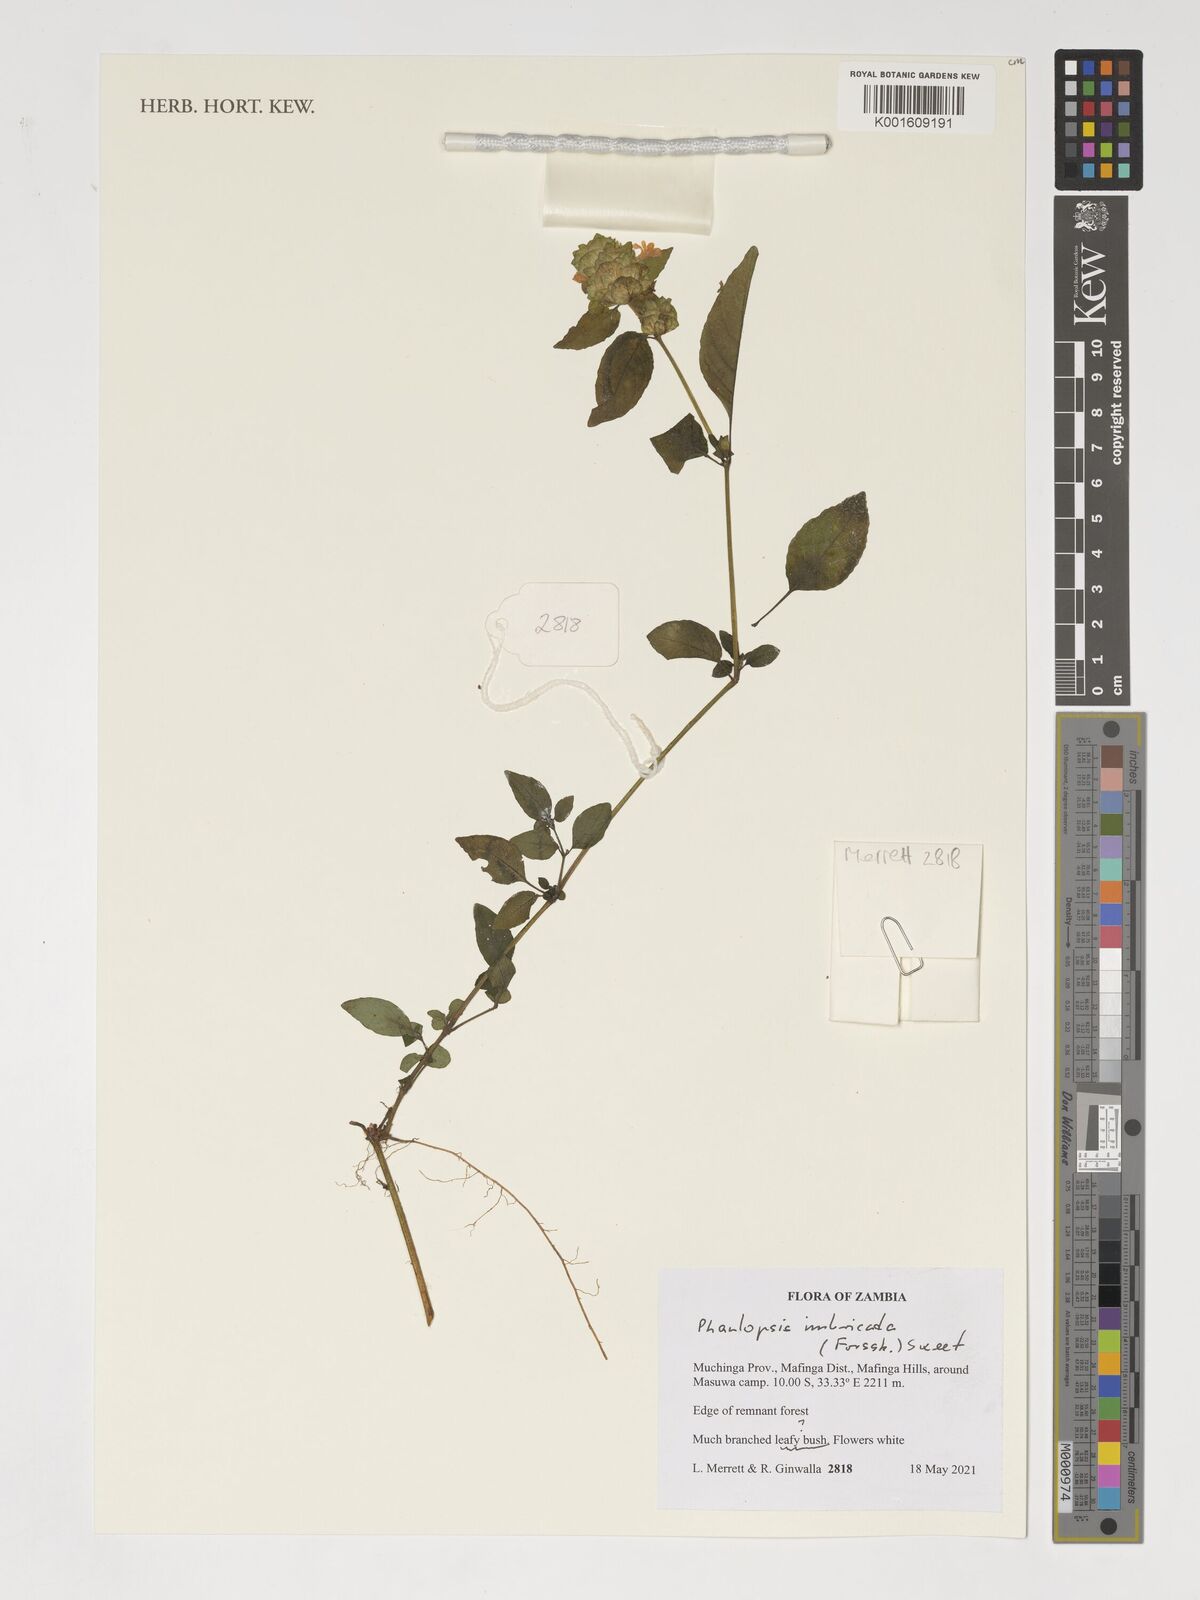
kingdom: Plantae
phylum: Tracheophyta
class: Magnoliopsida
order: Lamiales
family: Acanthaceae
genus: Phaulopsis
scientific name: Phaulopsis imbricata
